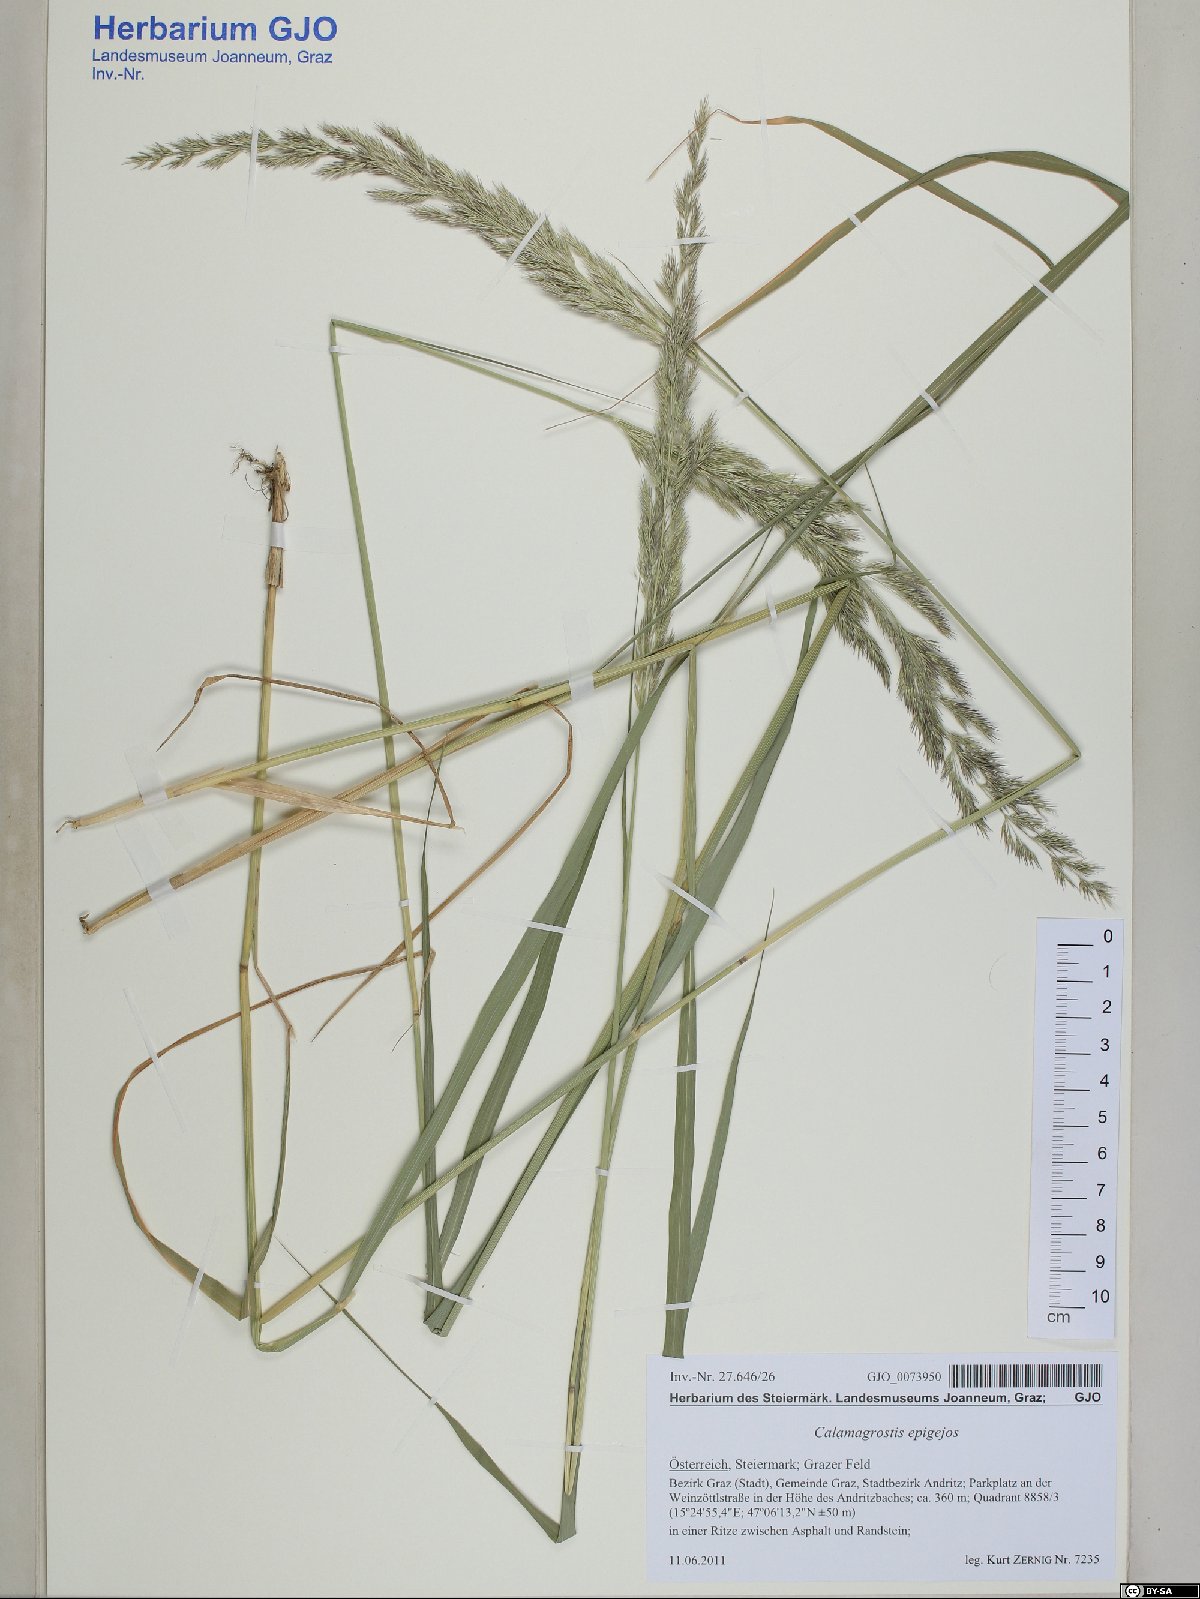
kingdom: Plantae
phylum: Tracheophyta
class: Liliopsida
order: Poales
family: Poaceae
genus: Calamagrostis
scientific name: Calamagrostis epigejos
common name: Wood small-reed
